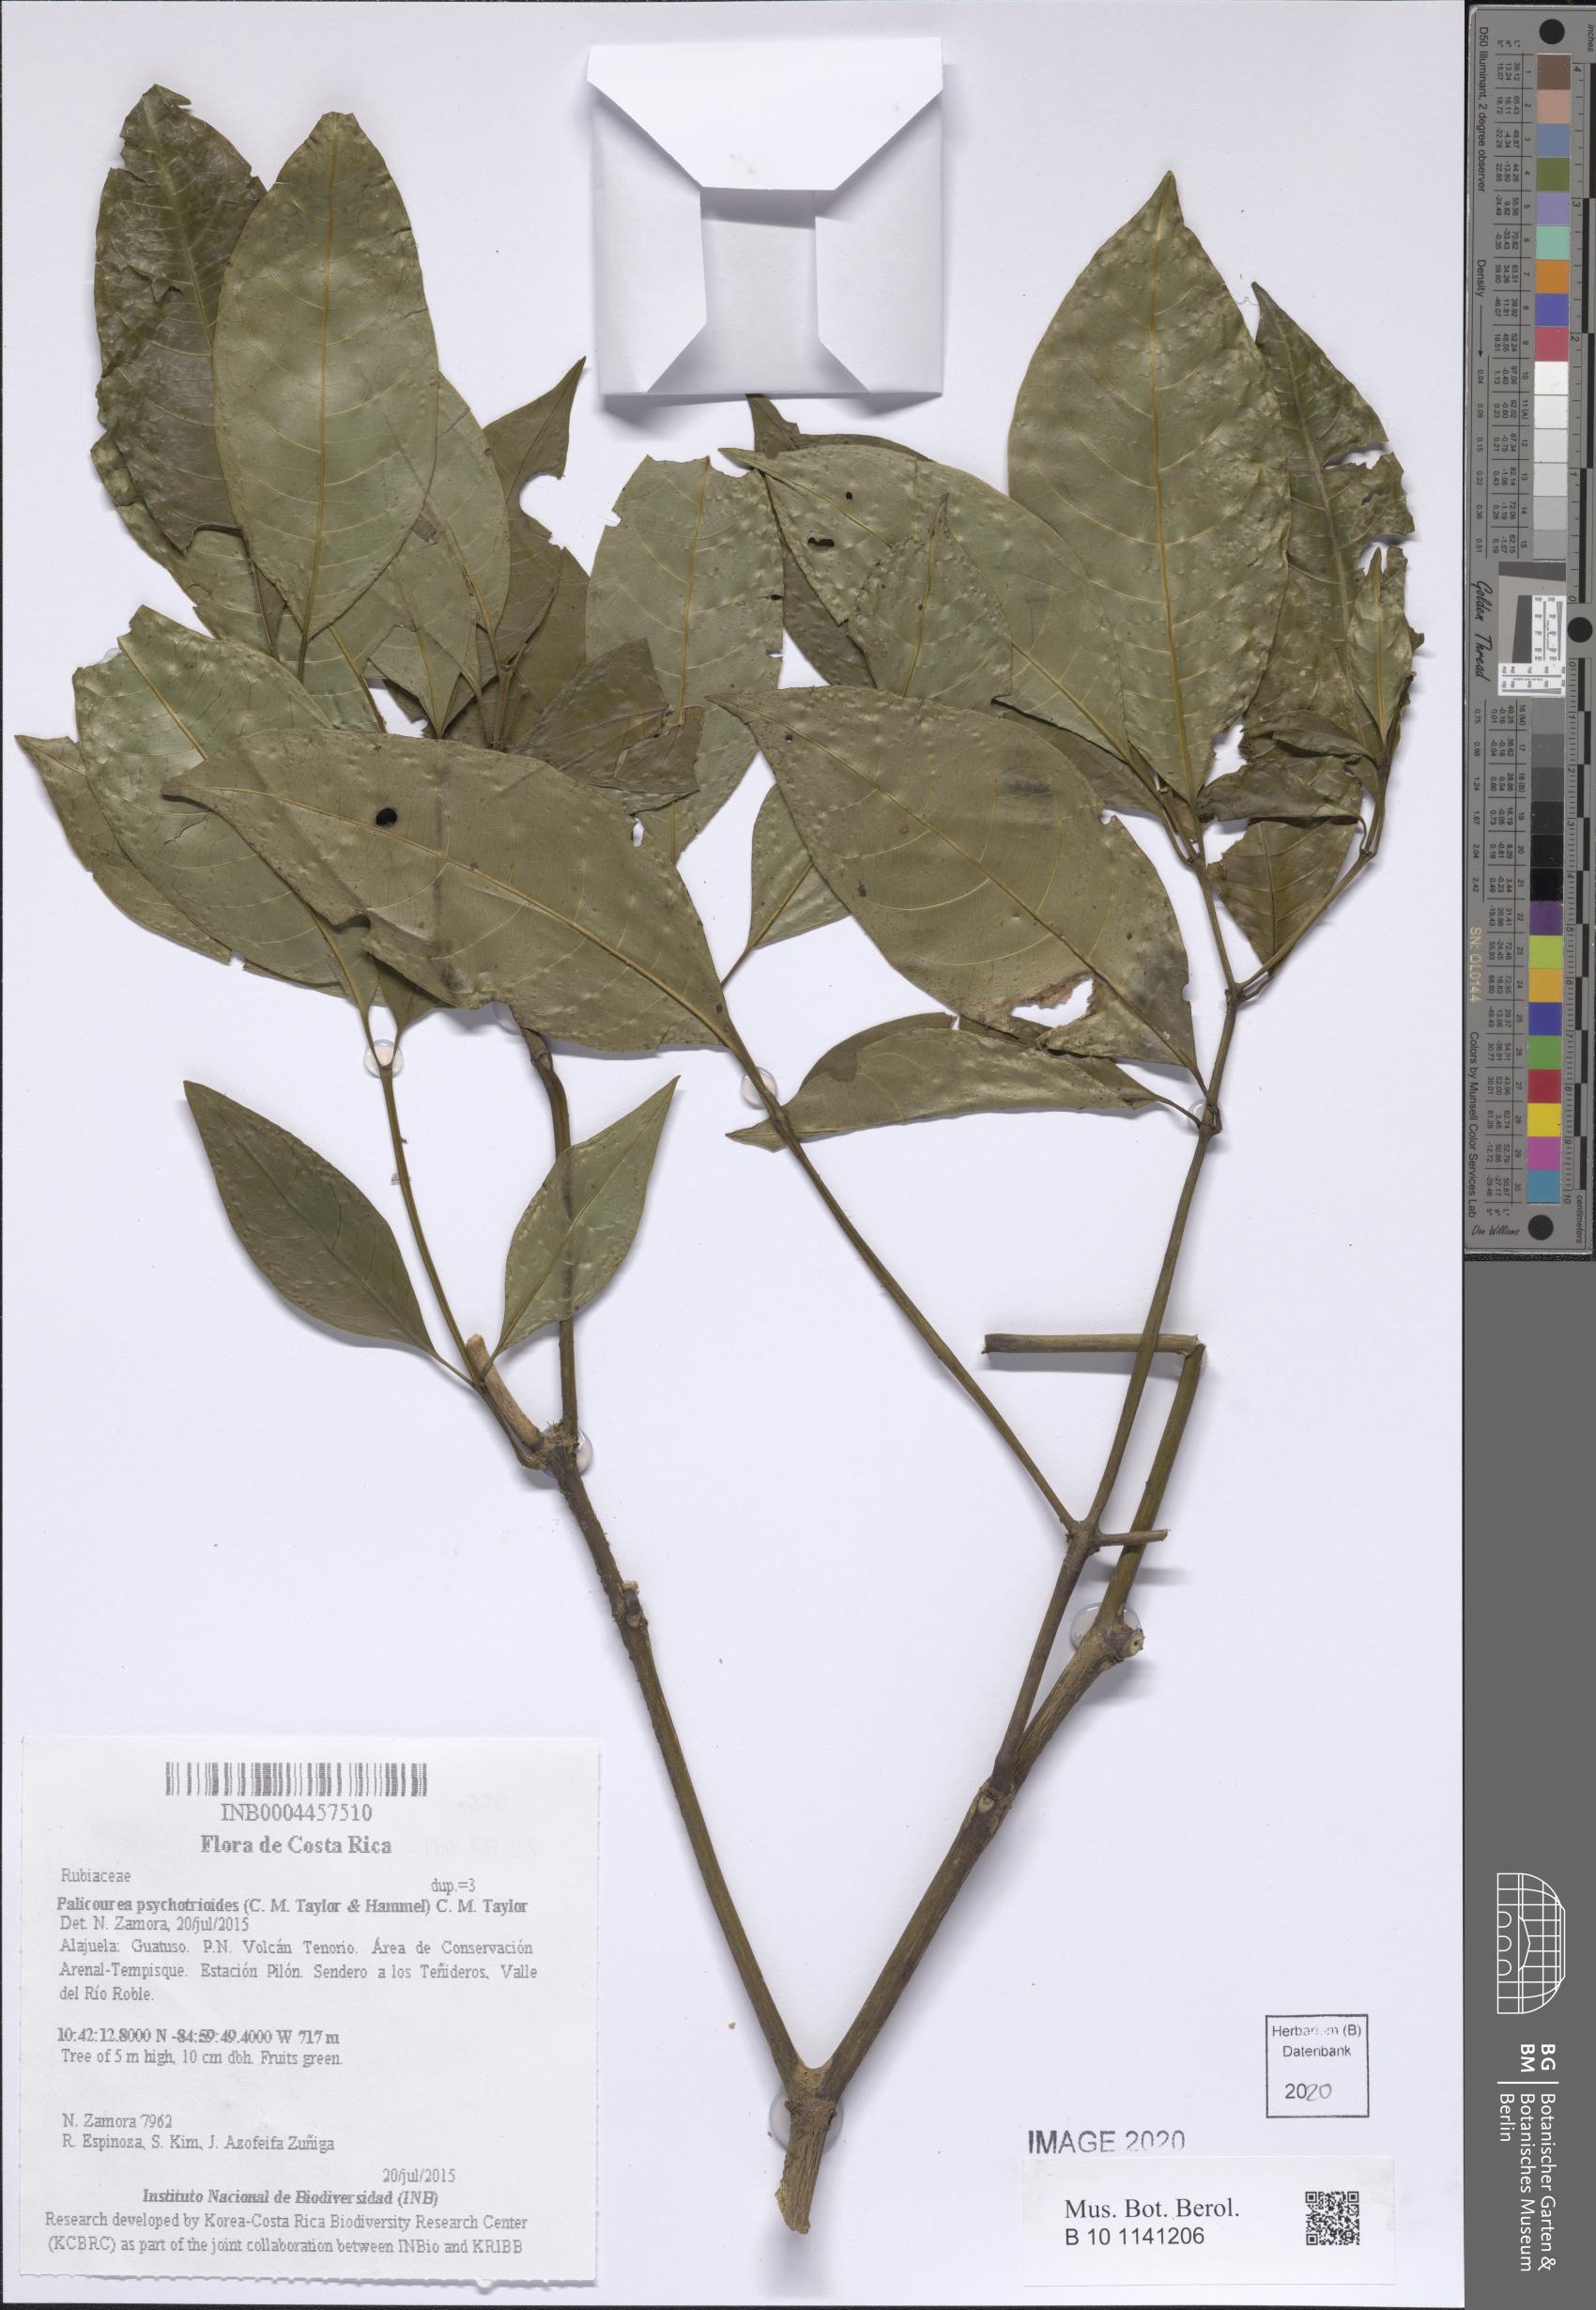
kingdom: Plantae
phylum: Tracheophyta
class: Magnoliopsida
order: Gentianales
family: Rubiaceae
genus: Palicourea
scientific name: Palicourea psychotrioides
